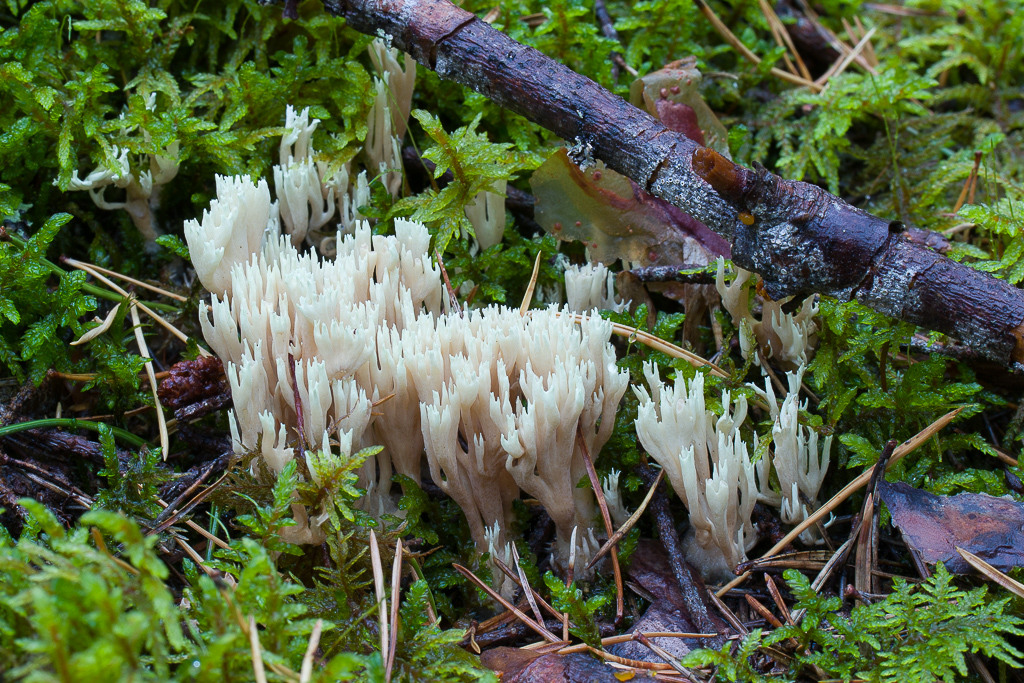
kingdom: Fungi
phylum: Basidiomycota
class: Agaricomycetes
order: Gomphales
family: Lentariaceae
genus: Lentaria
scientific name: Lentaria dendroidea
